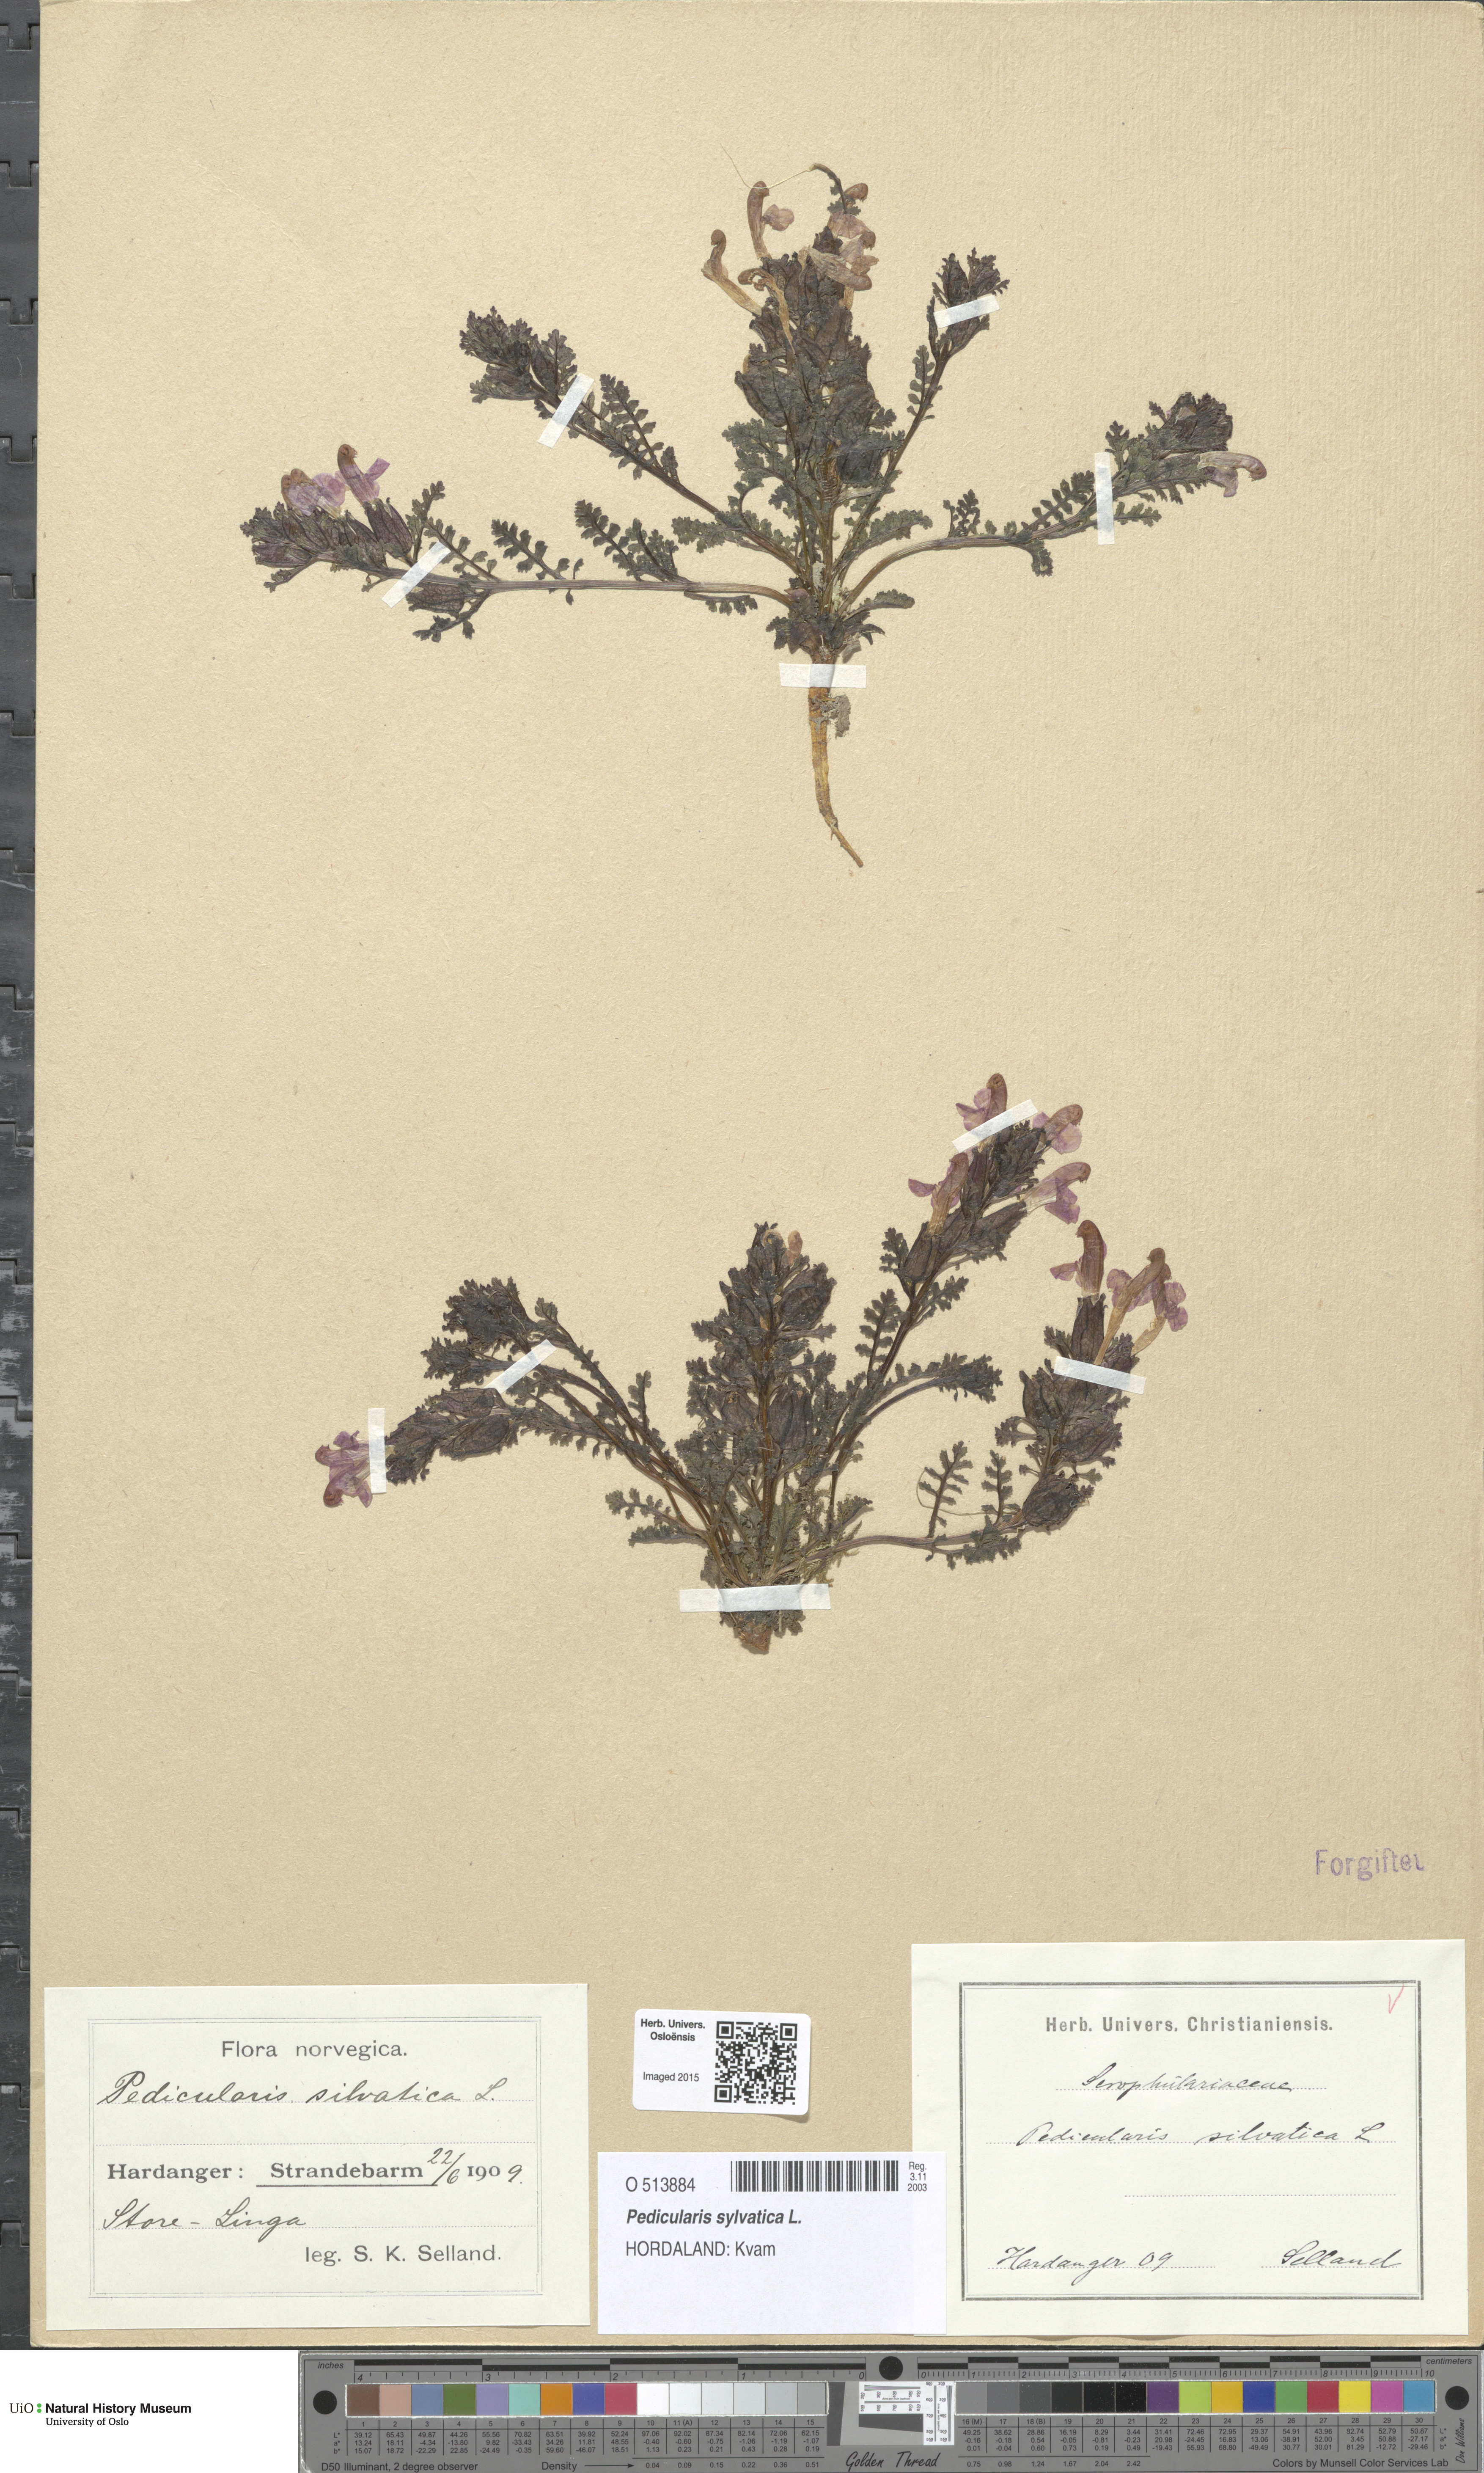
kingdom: Plantae
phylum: Tracheophyta
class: Magnoliopsida
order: Lamiales
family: Orobanchaceae
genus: Pedicularis
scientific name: Pedicularis sylvatica
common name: Lousewort
